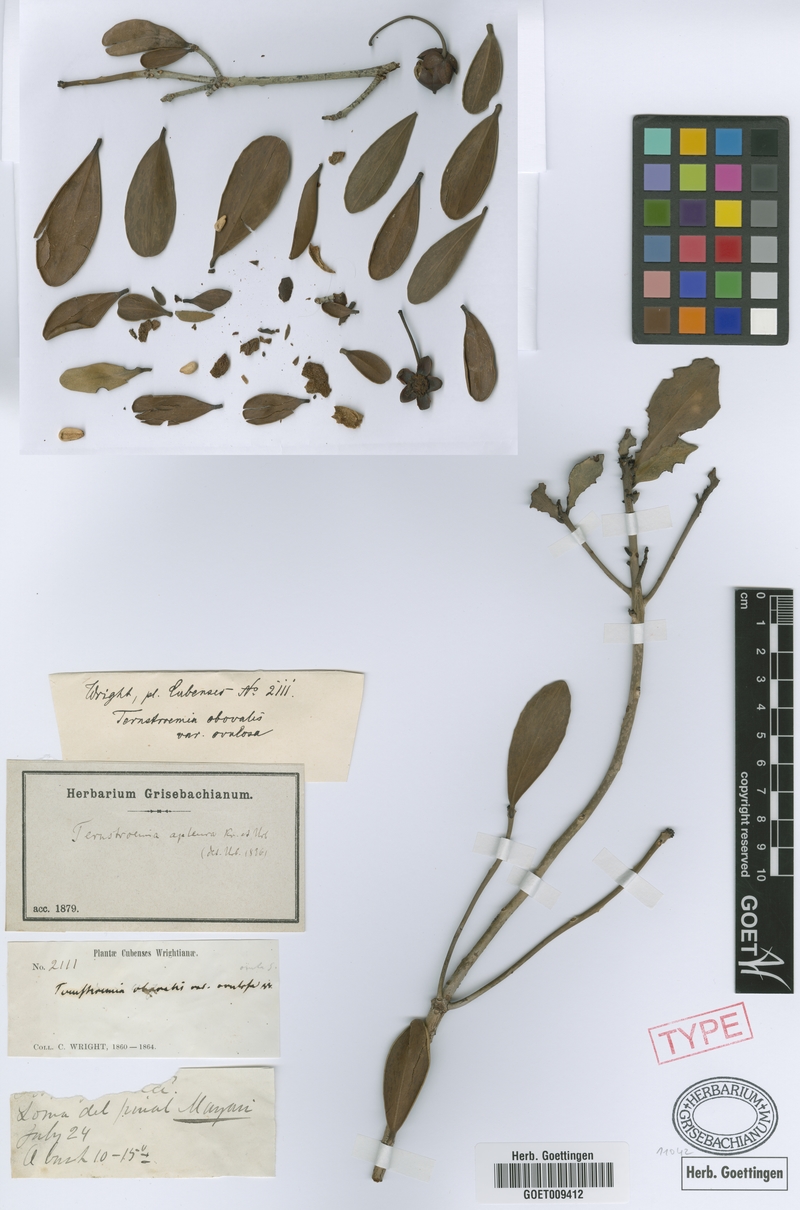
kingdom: Plantae
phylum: Tracheophyta
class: Magnoliopsida
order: Ericales
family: Pentaphylacaceae
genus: Ternstroemia
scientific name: Ternstroemia peduncularis
